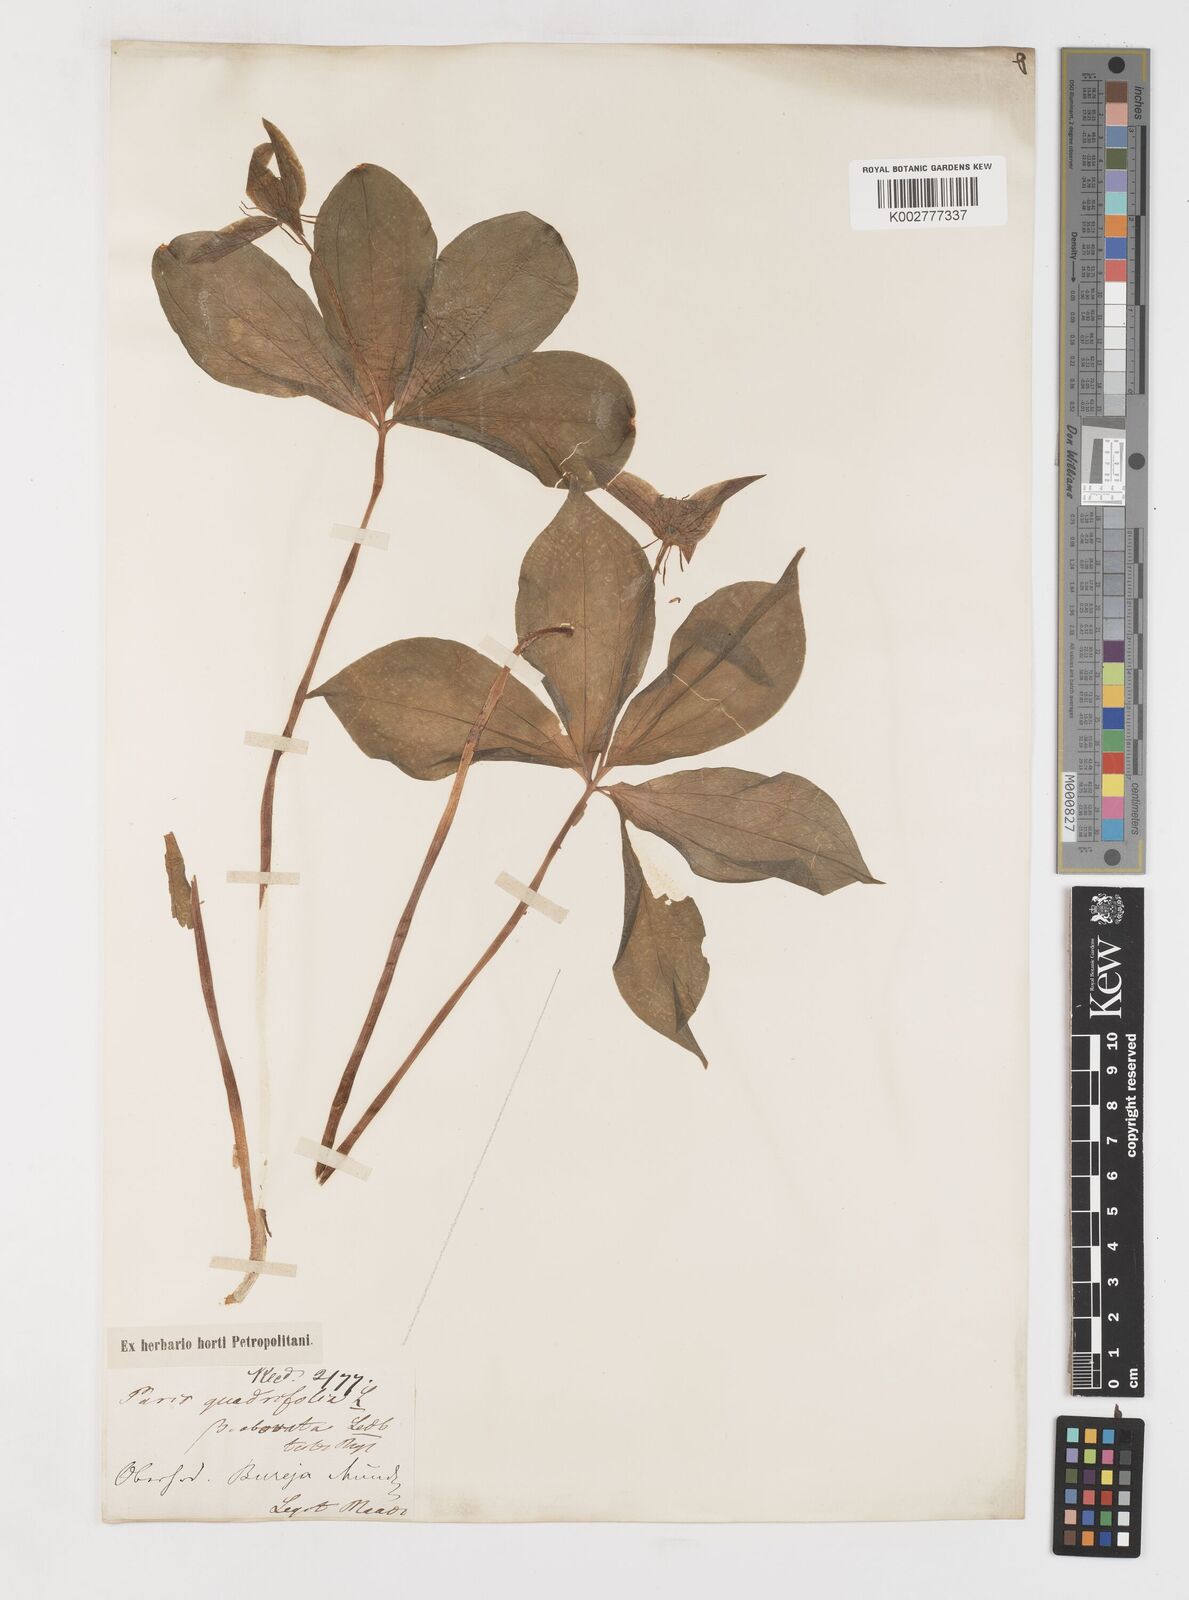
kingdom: Plantae
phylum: Tracheophyta
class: Liliopsida
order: Liliales
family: Melanthiaceae
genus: Paris
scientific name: Paris verticillata
